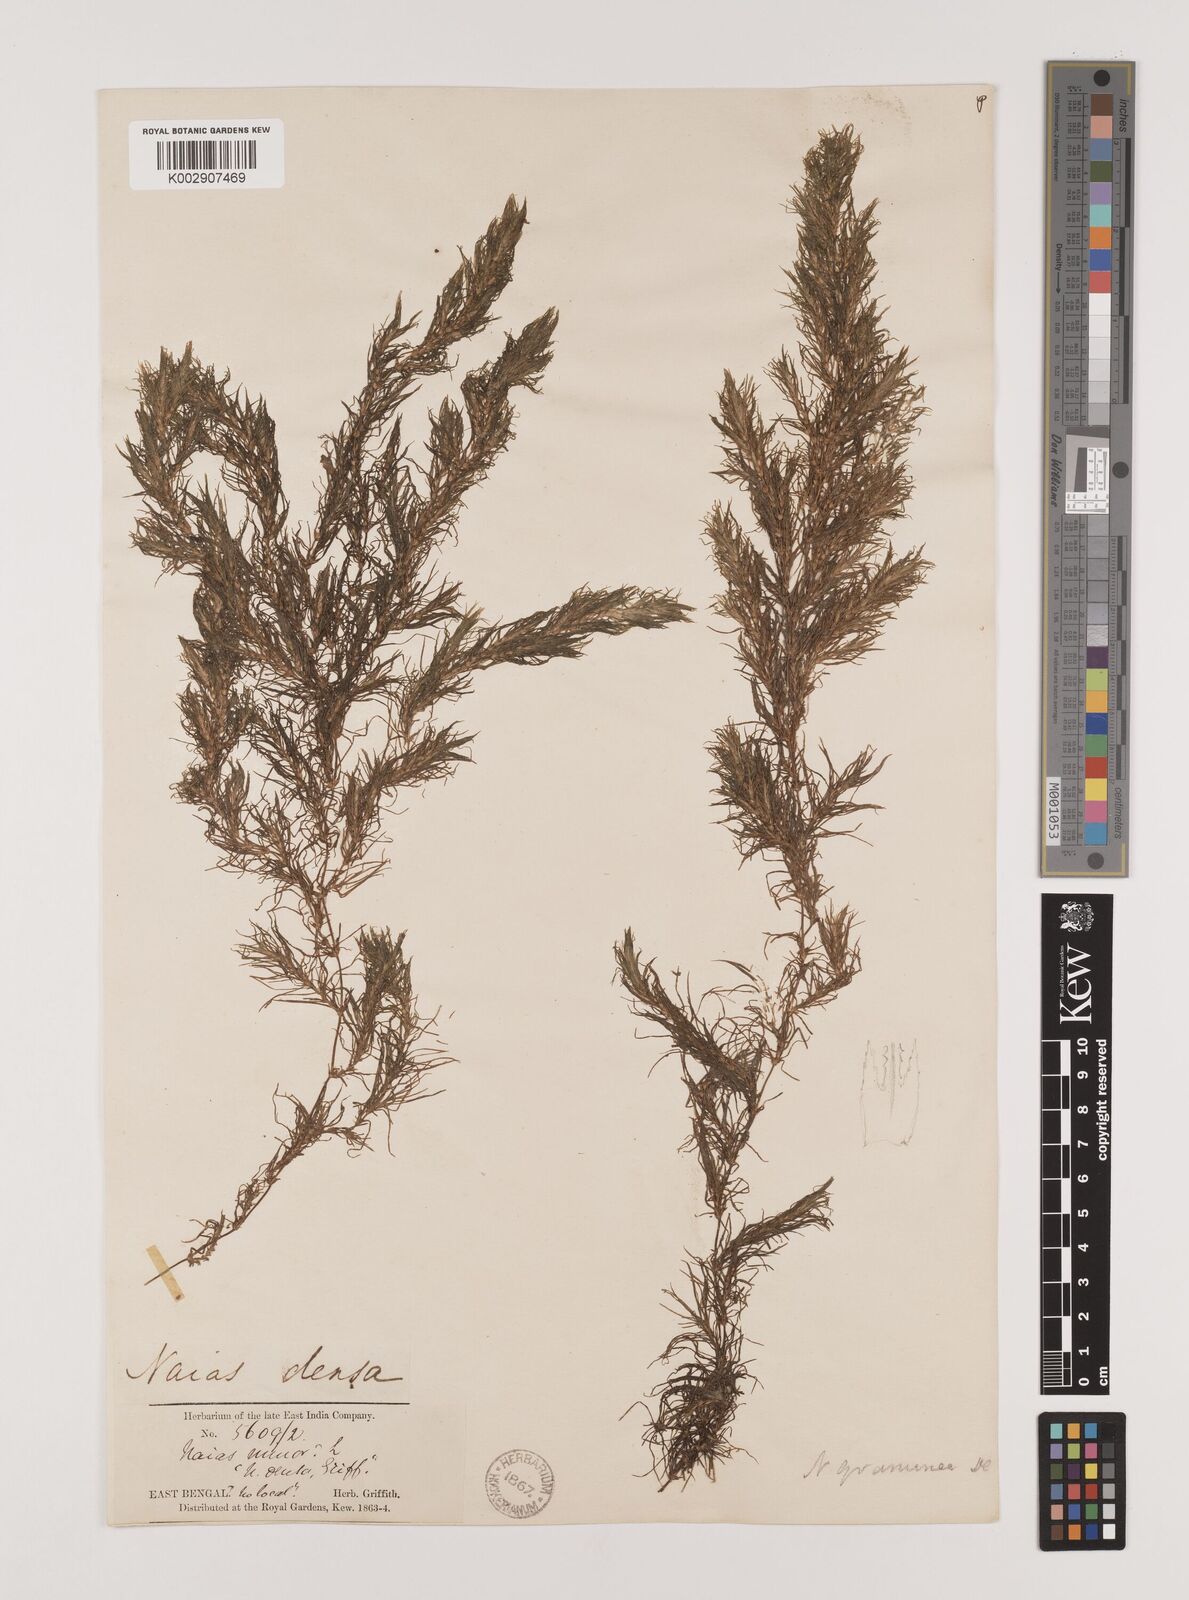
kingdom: Plantae
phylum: Tracheophyta
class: Liliopsida
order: Alismatales
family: Hydrocharitaceae
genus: Najas
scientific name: Najas graminea
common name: Ricefield waternymph
